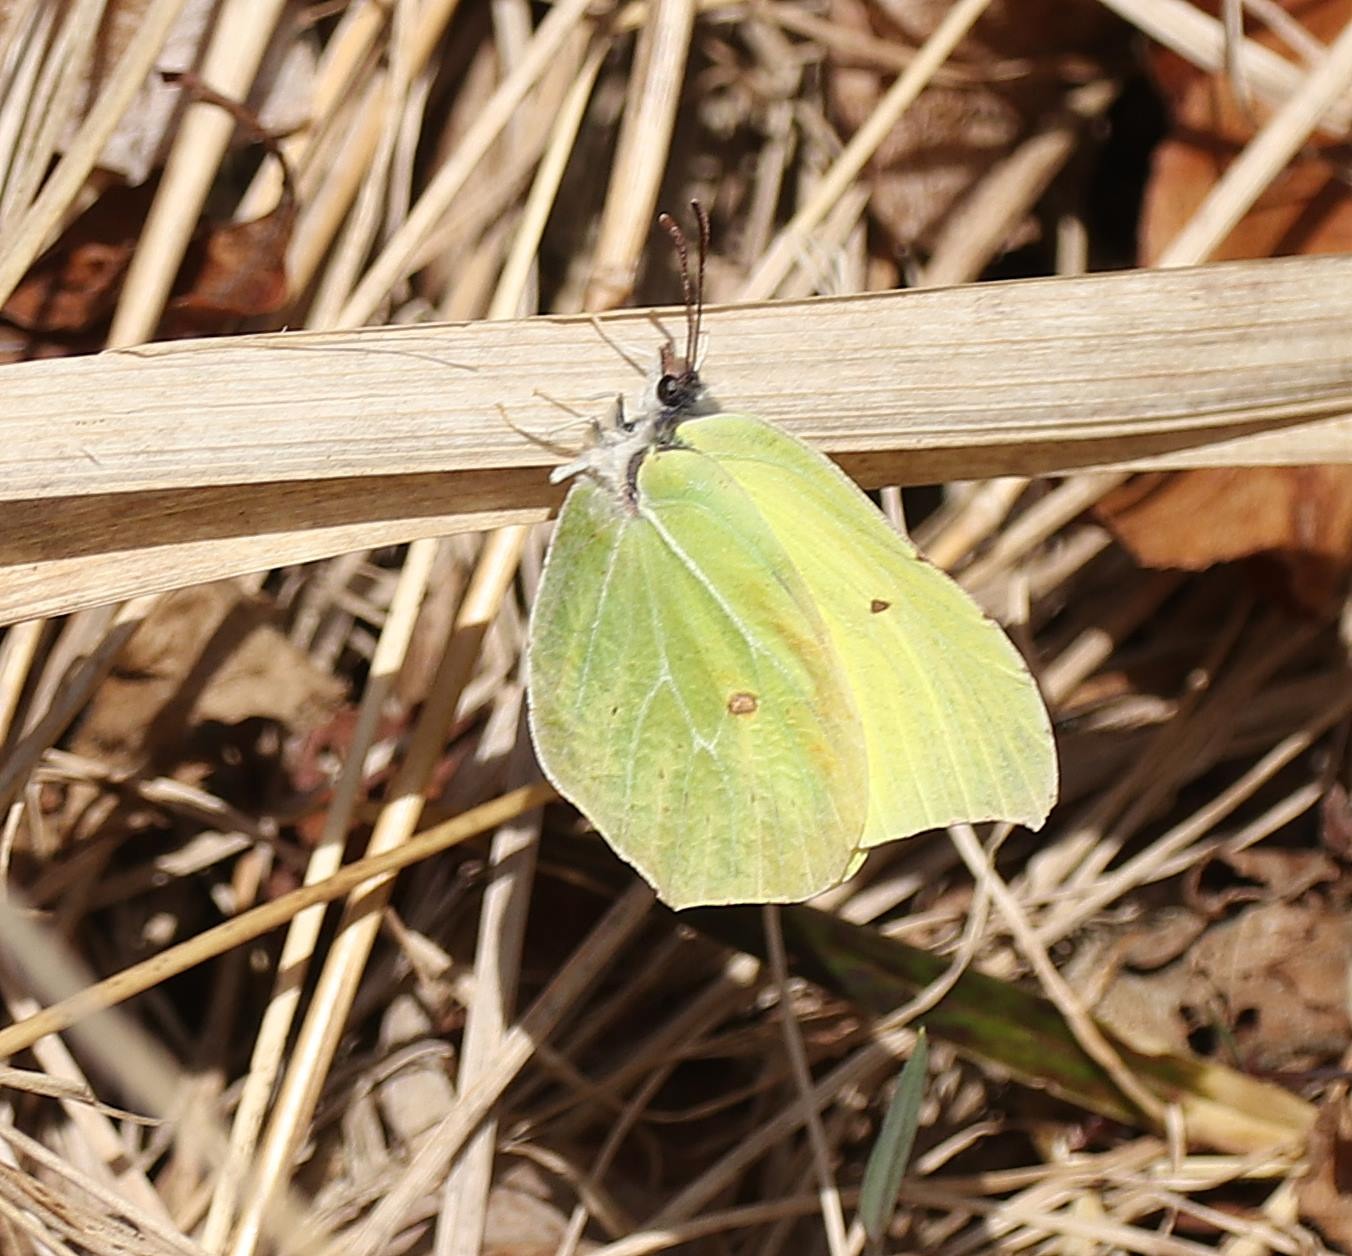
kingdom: Animalia
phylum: Arthropoda
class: Insecta
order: Lepidoptera
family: Pieridae
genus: Gonepteryx
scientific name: Gonepteryx rhamni
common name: Citronsommerfugl
